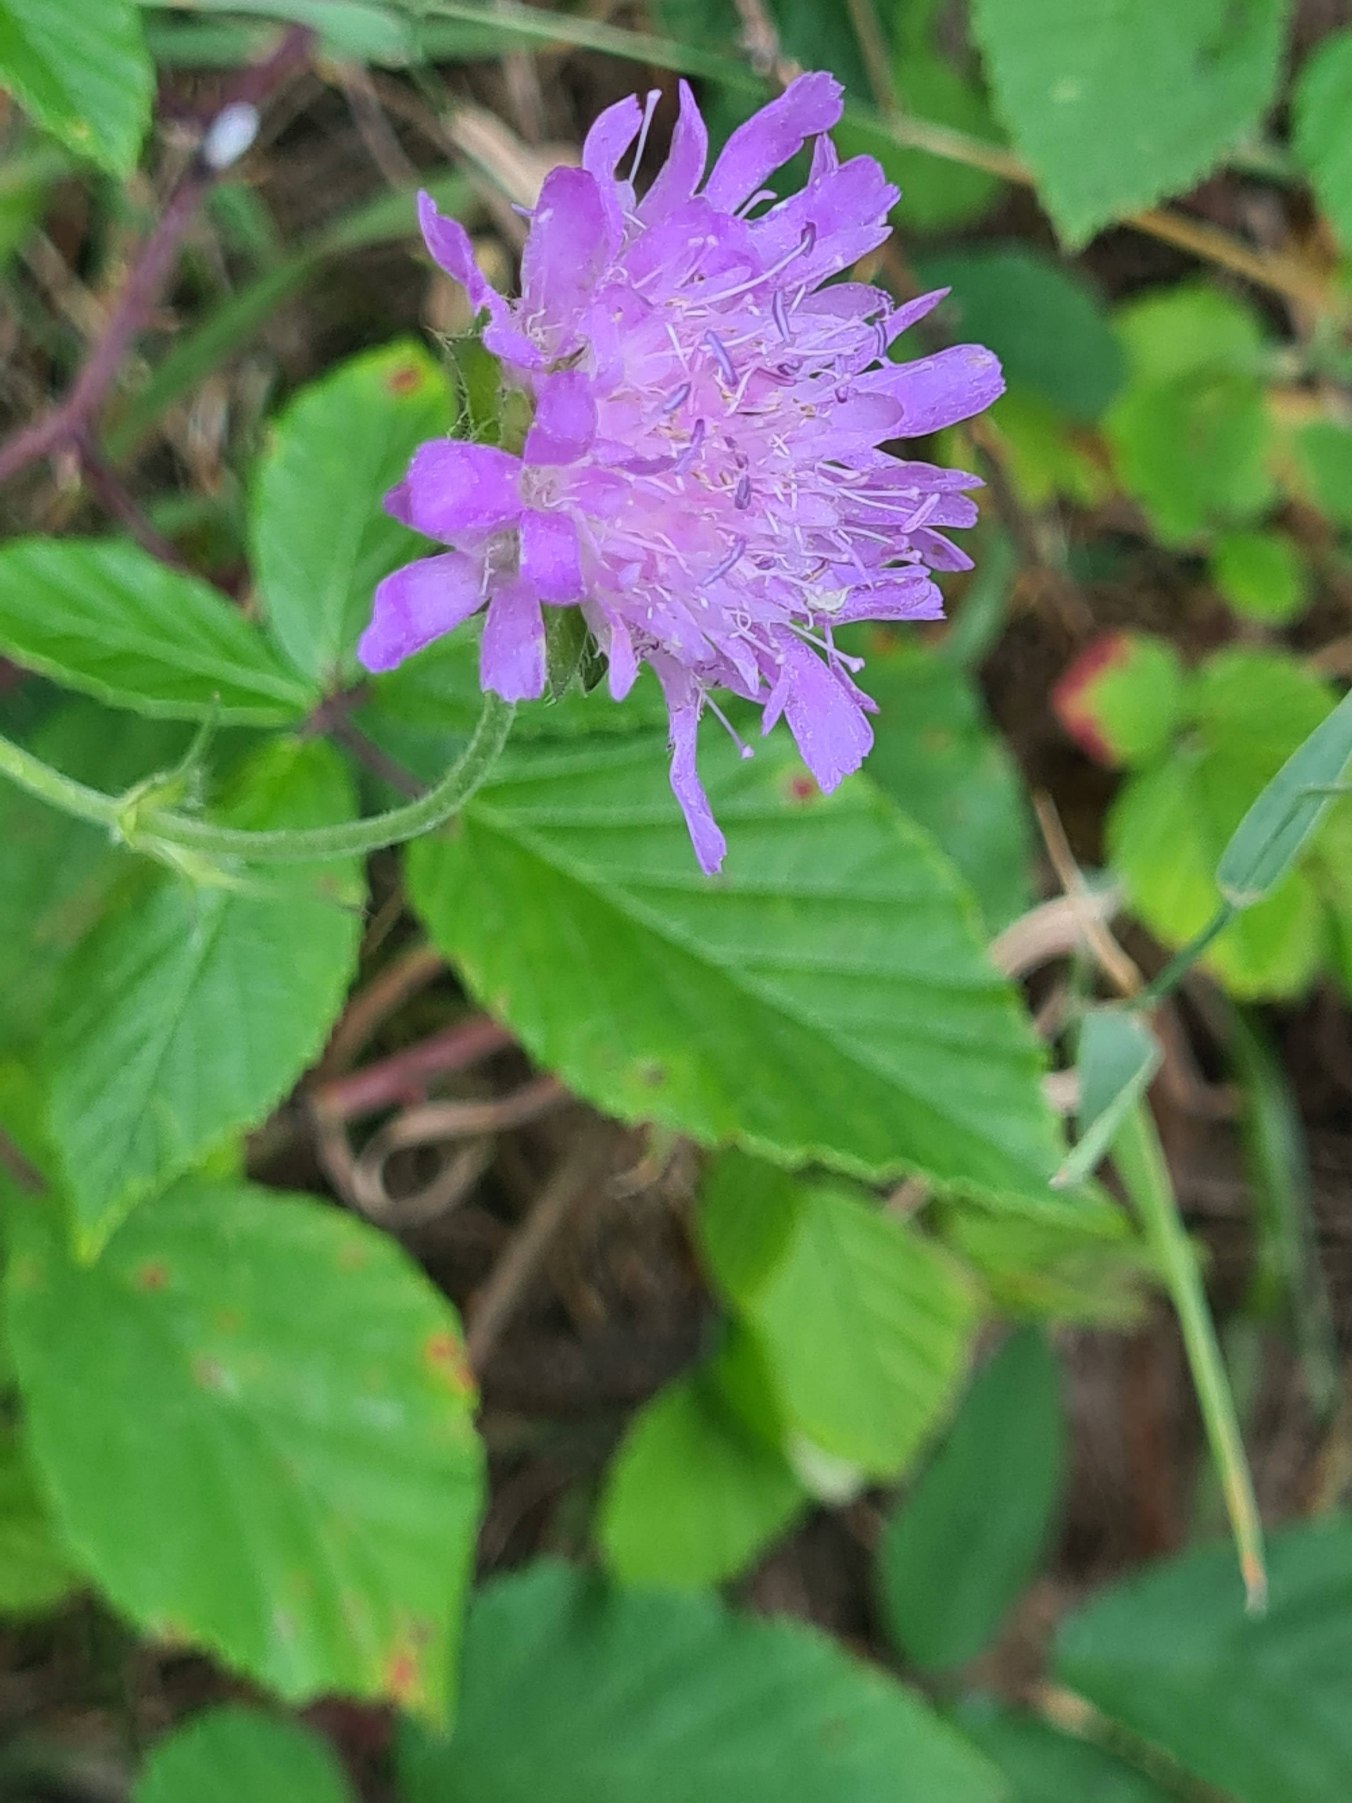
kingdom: Plantae
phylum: Tracheophyta
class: Magnoliopsida
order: Dipsacales
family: Caprifoliaceae
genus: Knautia
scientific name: Knautia arvensis
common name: Blåhat
